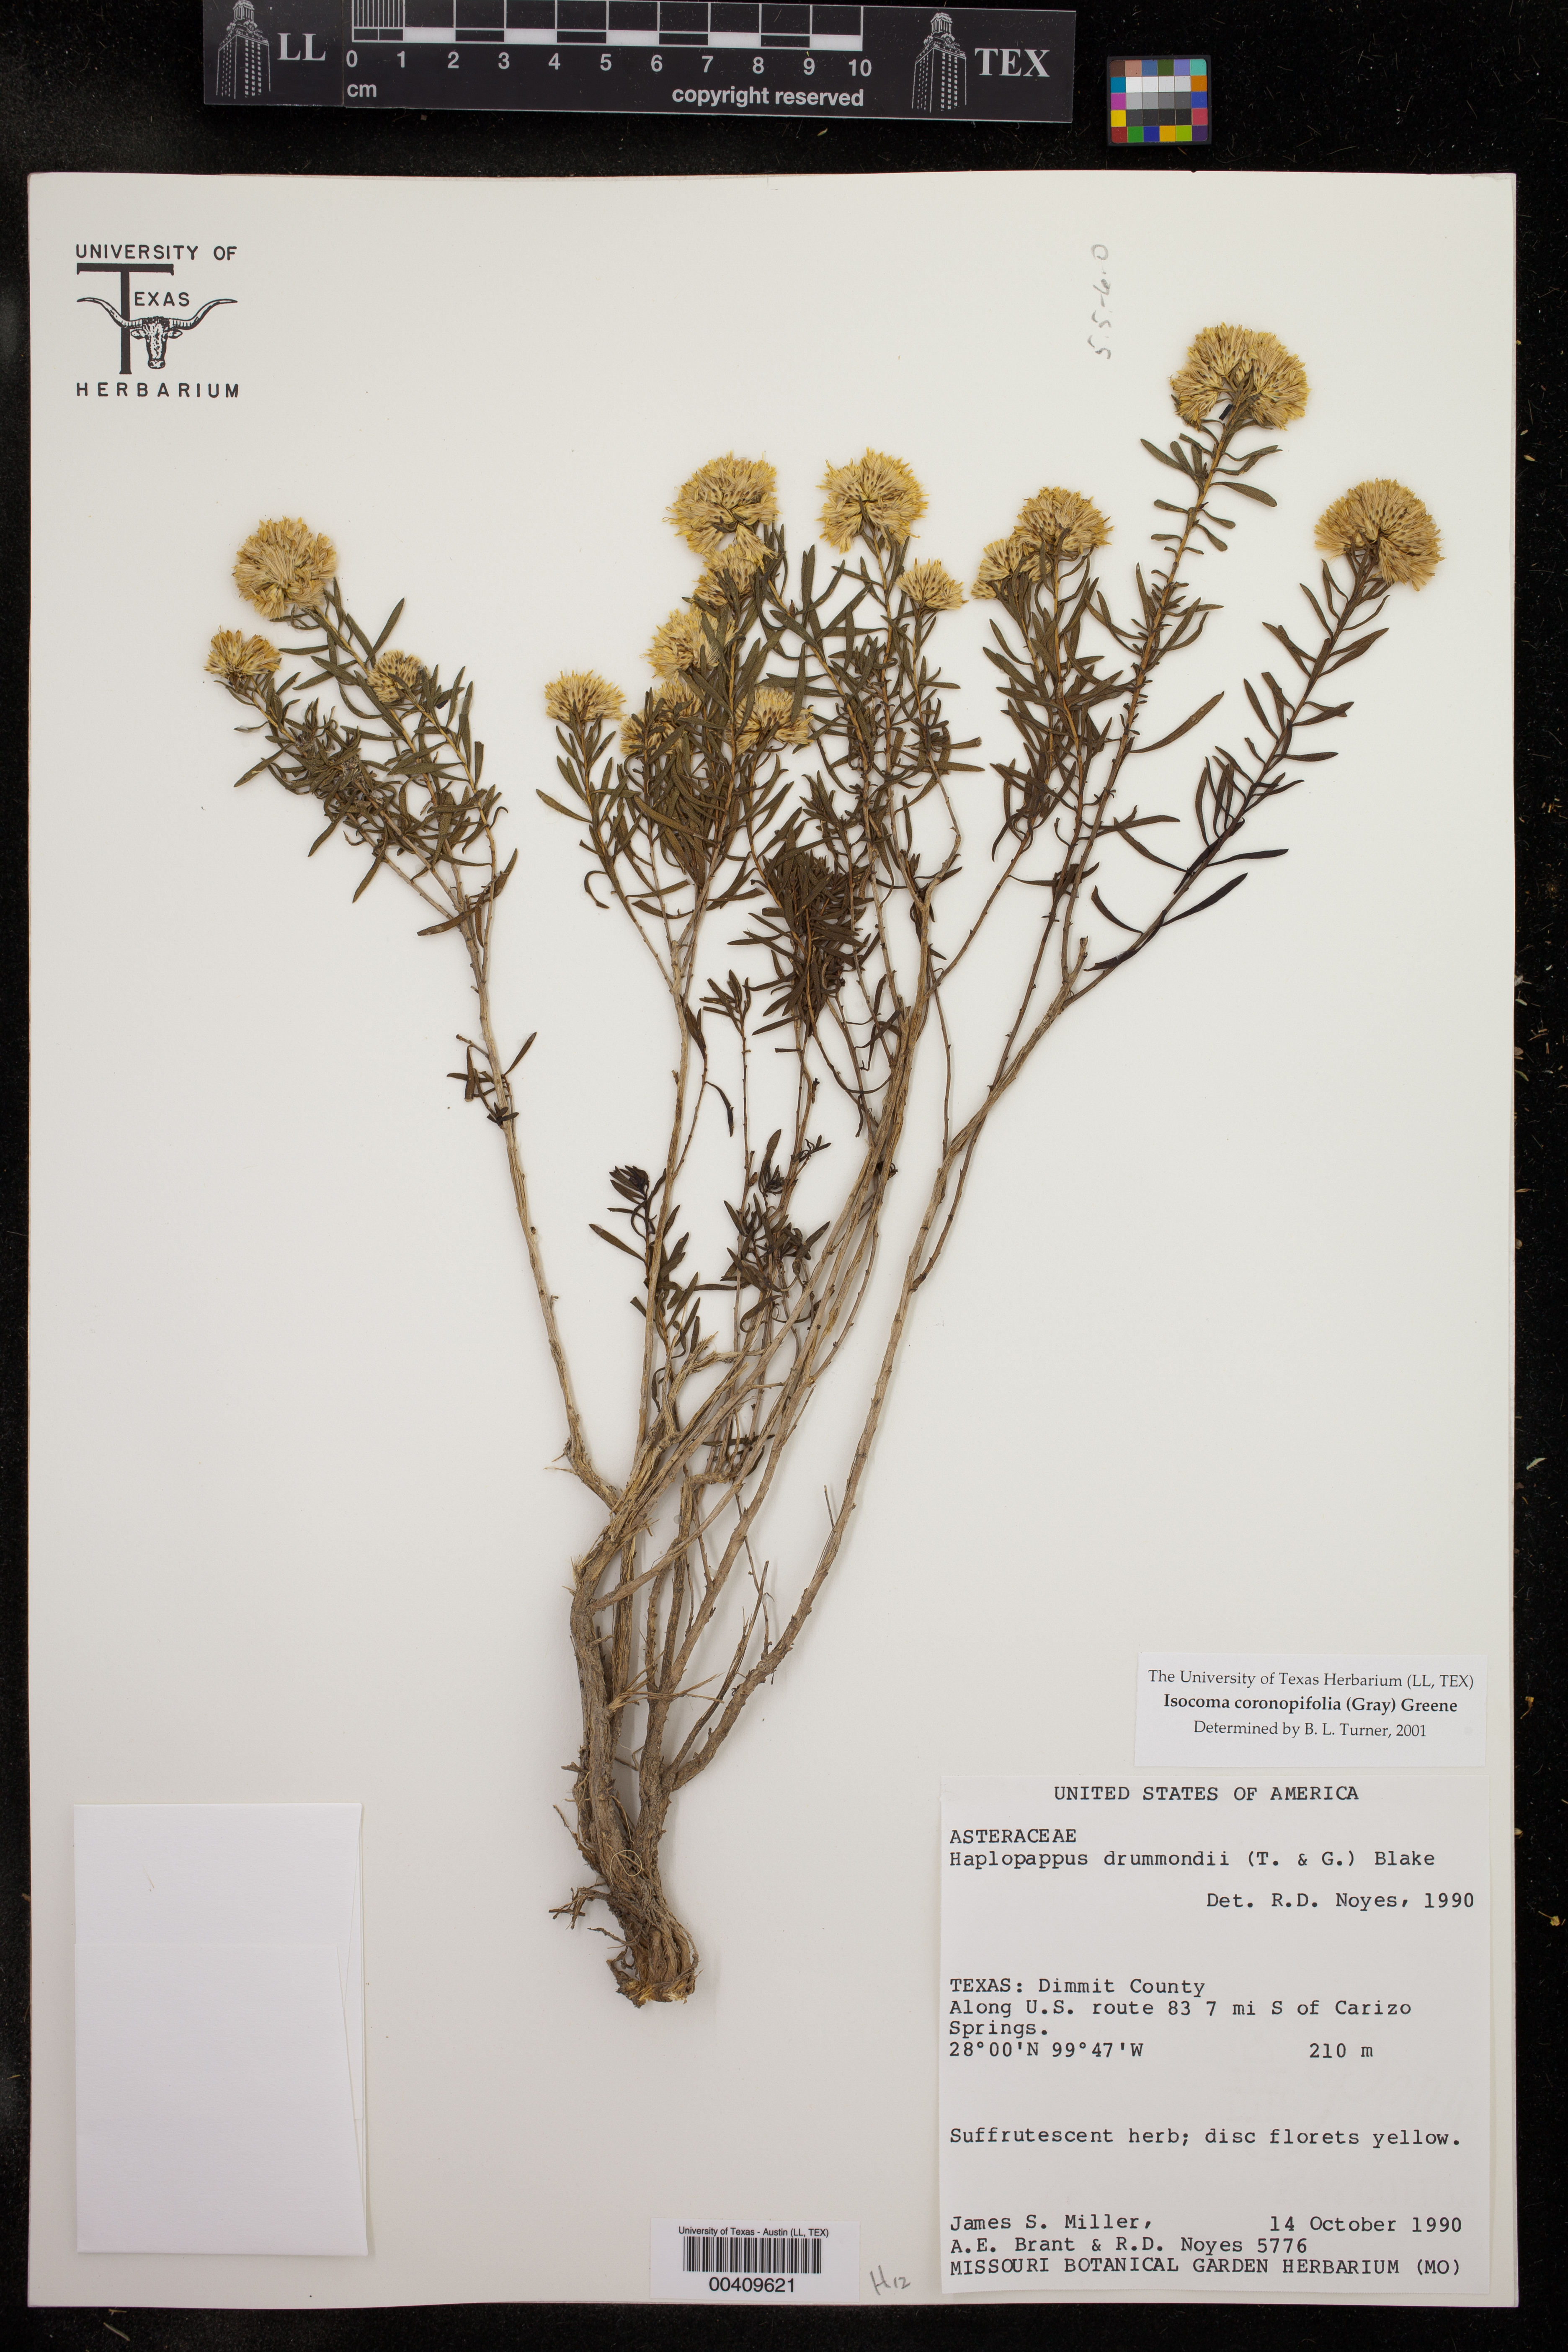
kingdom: Plantae
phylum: Tracheophyta
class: Magnoliopsida
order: Asterales
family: Asteraceae
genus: Isocoma
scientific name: Isocoma coronopifolia
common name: Common jimmyweed
